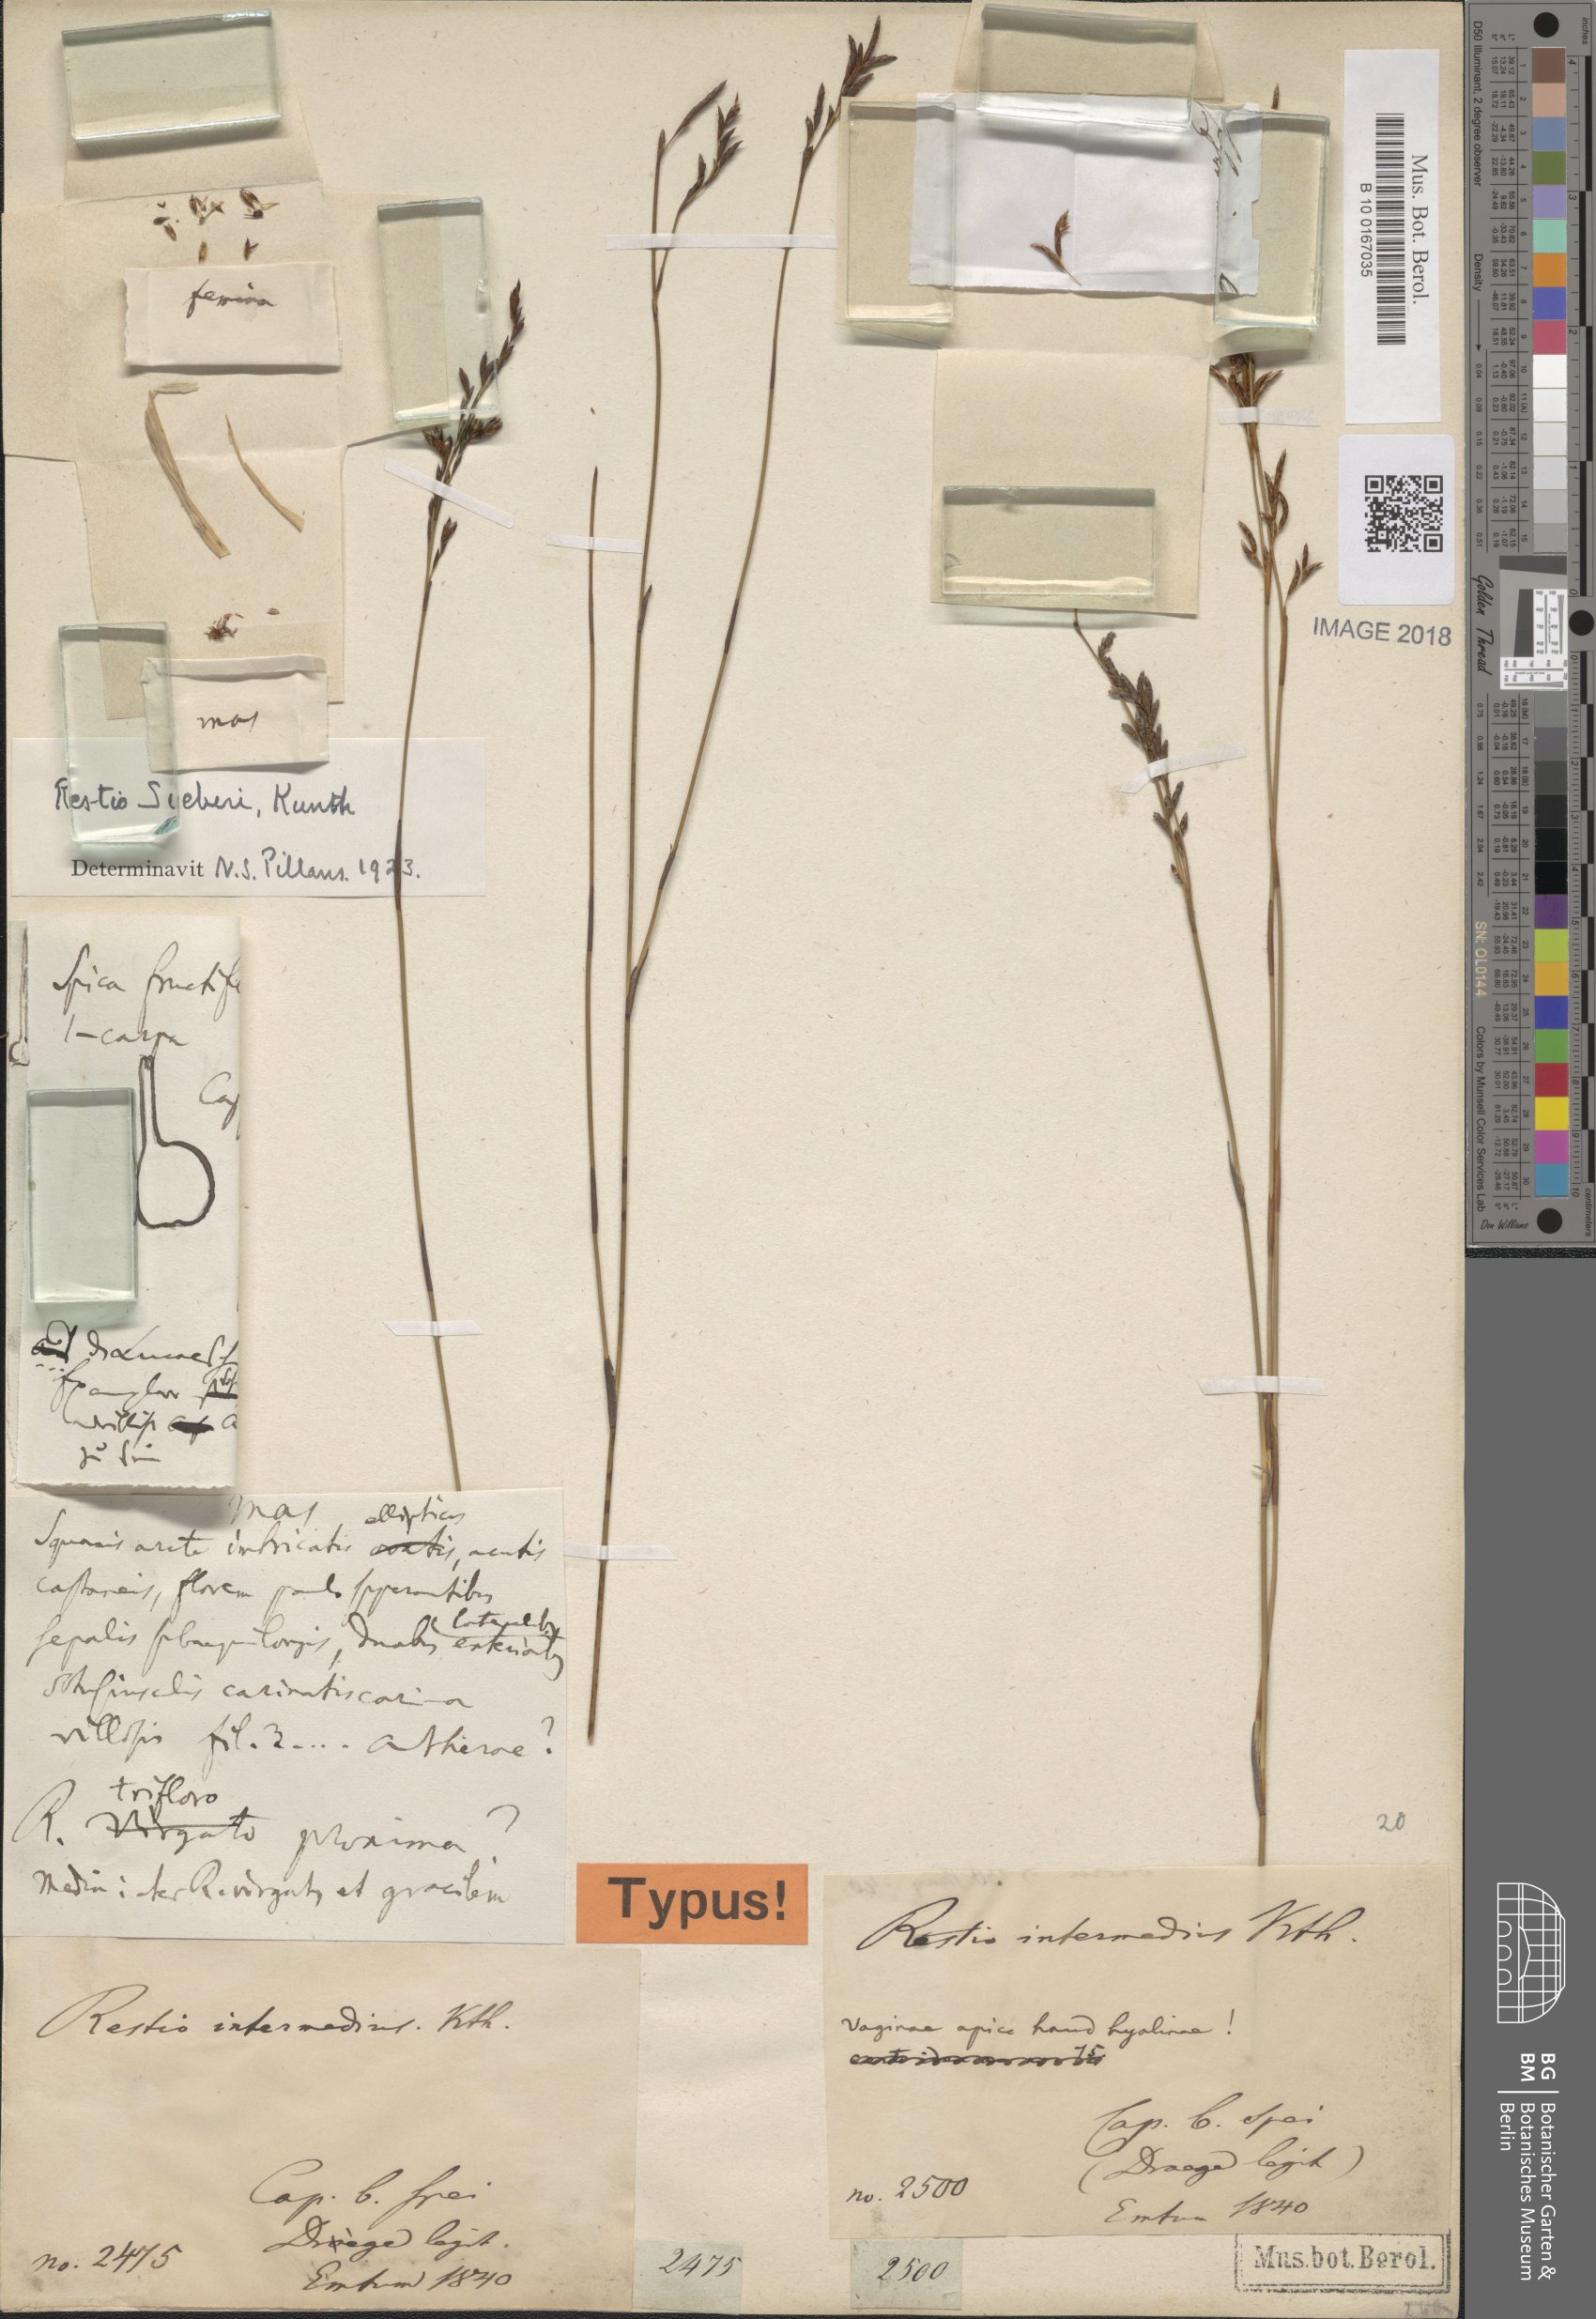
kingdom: Plantae
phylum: Tracheophyta
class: Liliopsida
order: Poales
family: Restionaceae
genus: Restio
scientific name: Restio sieberi
